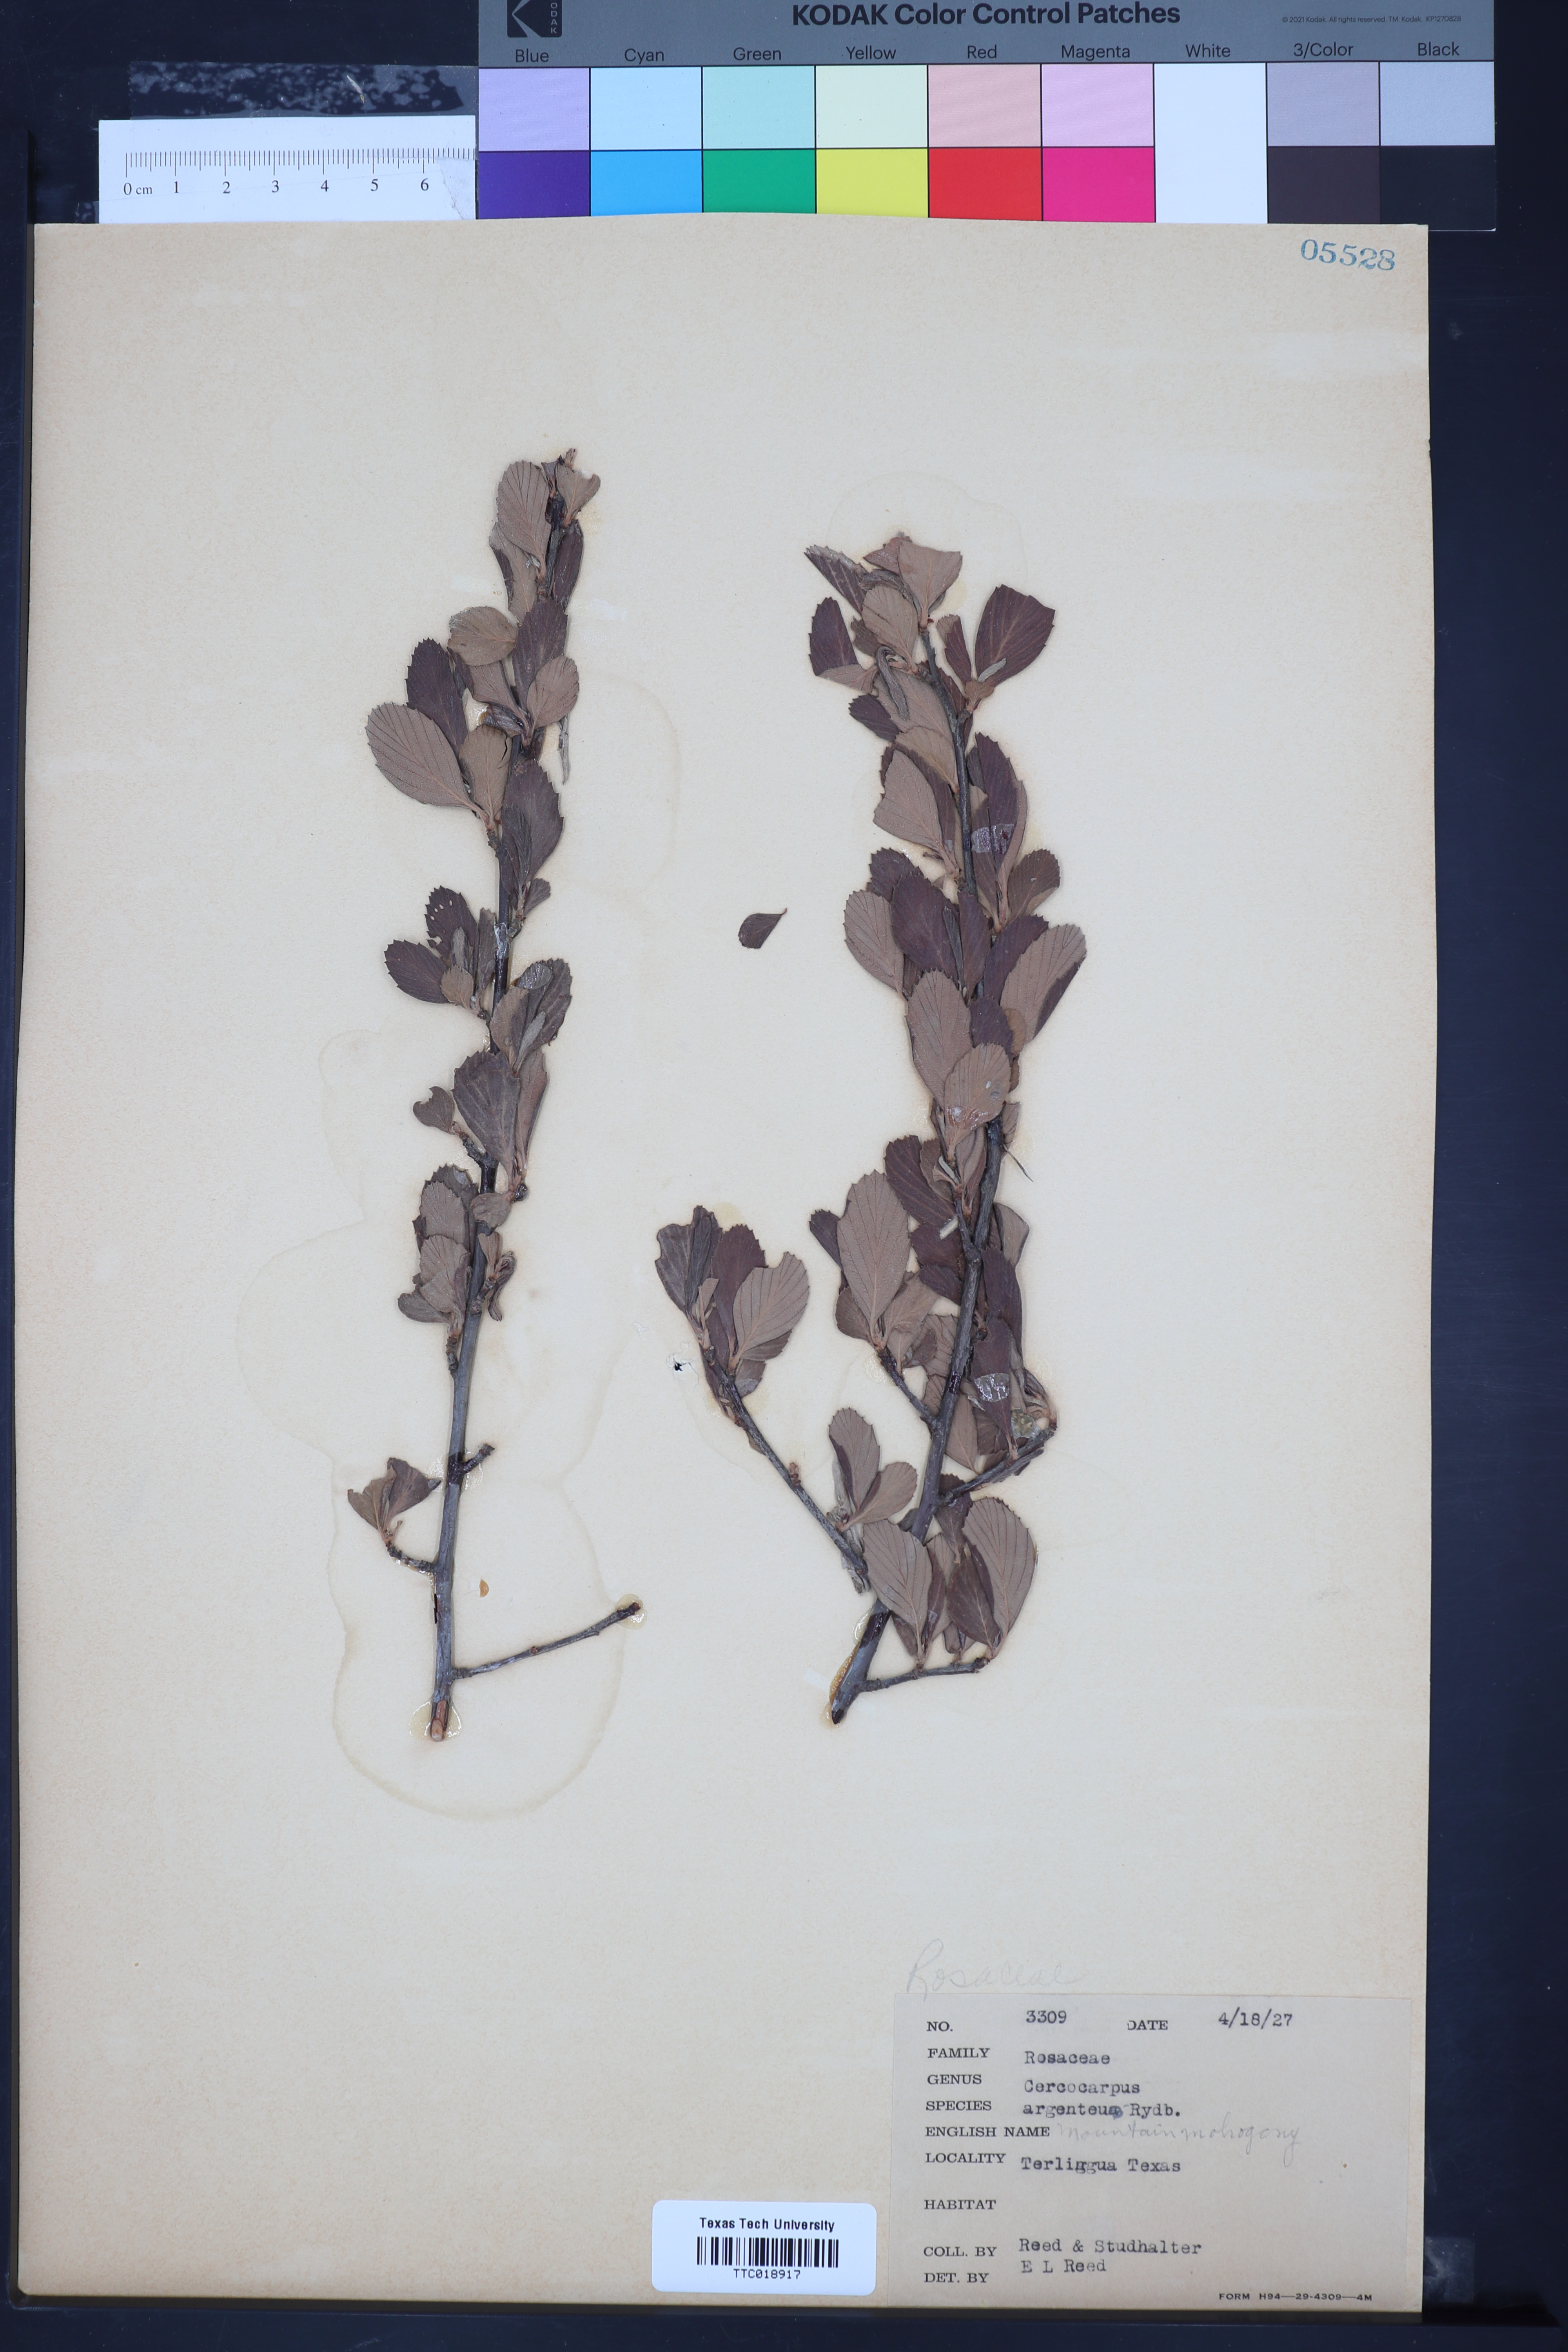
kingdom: Plantae
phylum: Tracheophyta
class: Magnoliopsida
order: Rosales
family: Rosaceae
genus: Cercocarpus
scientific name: Cercocarpus intricatus
